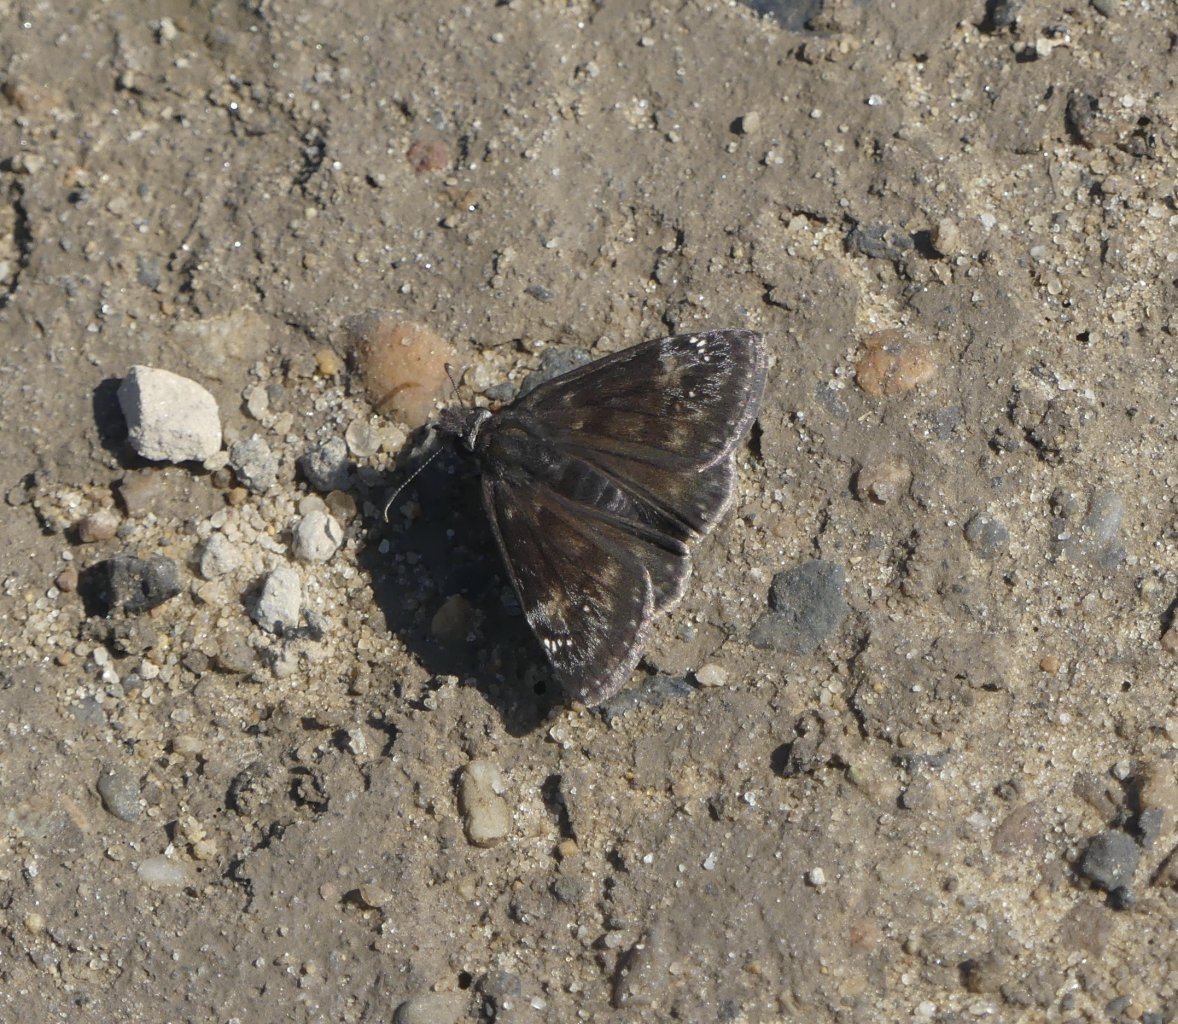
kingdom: Animalia
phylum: Arthropoda
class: Insecta
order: Lepidoptera
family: Hesperiidae
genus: Gesta
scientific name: Gesta
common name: Wild Indigo Duskywing
